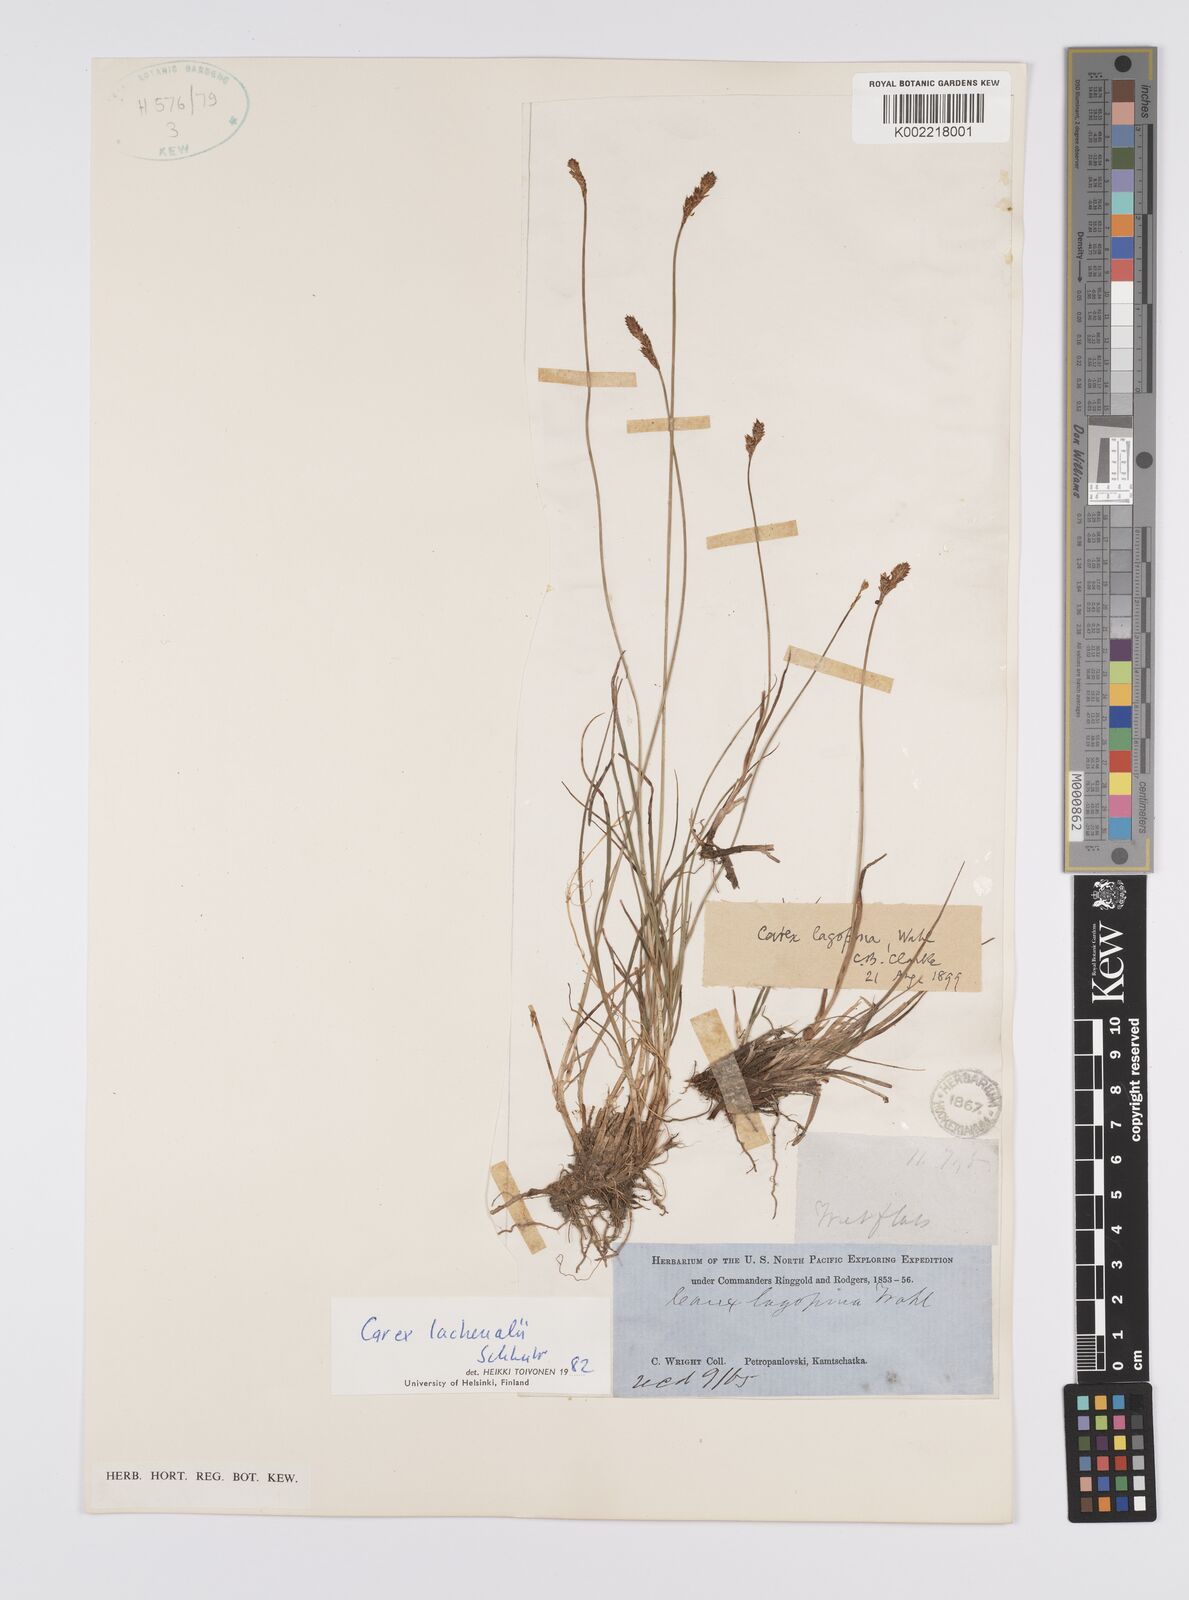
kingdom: Plantae
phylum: Tracheophyta
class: Liliopsida
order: Poales
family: Cyperaceae
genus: Carex
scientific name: Carex lachenalii
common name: Hare's-foot sedge
